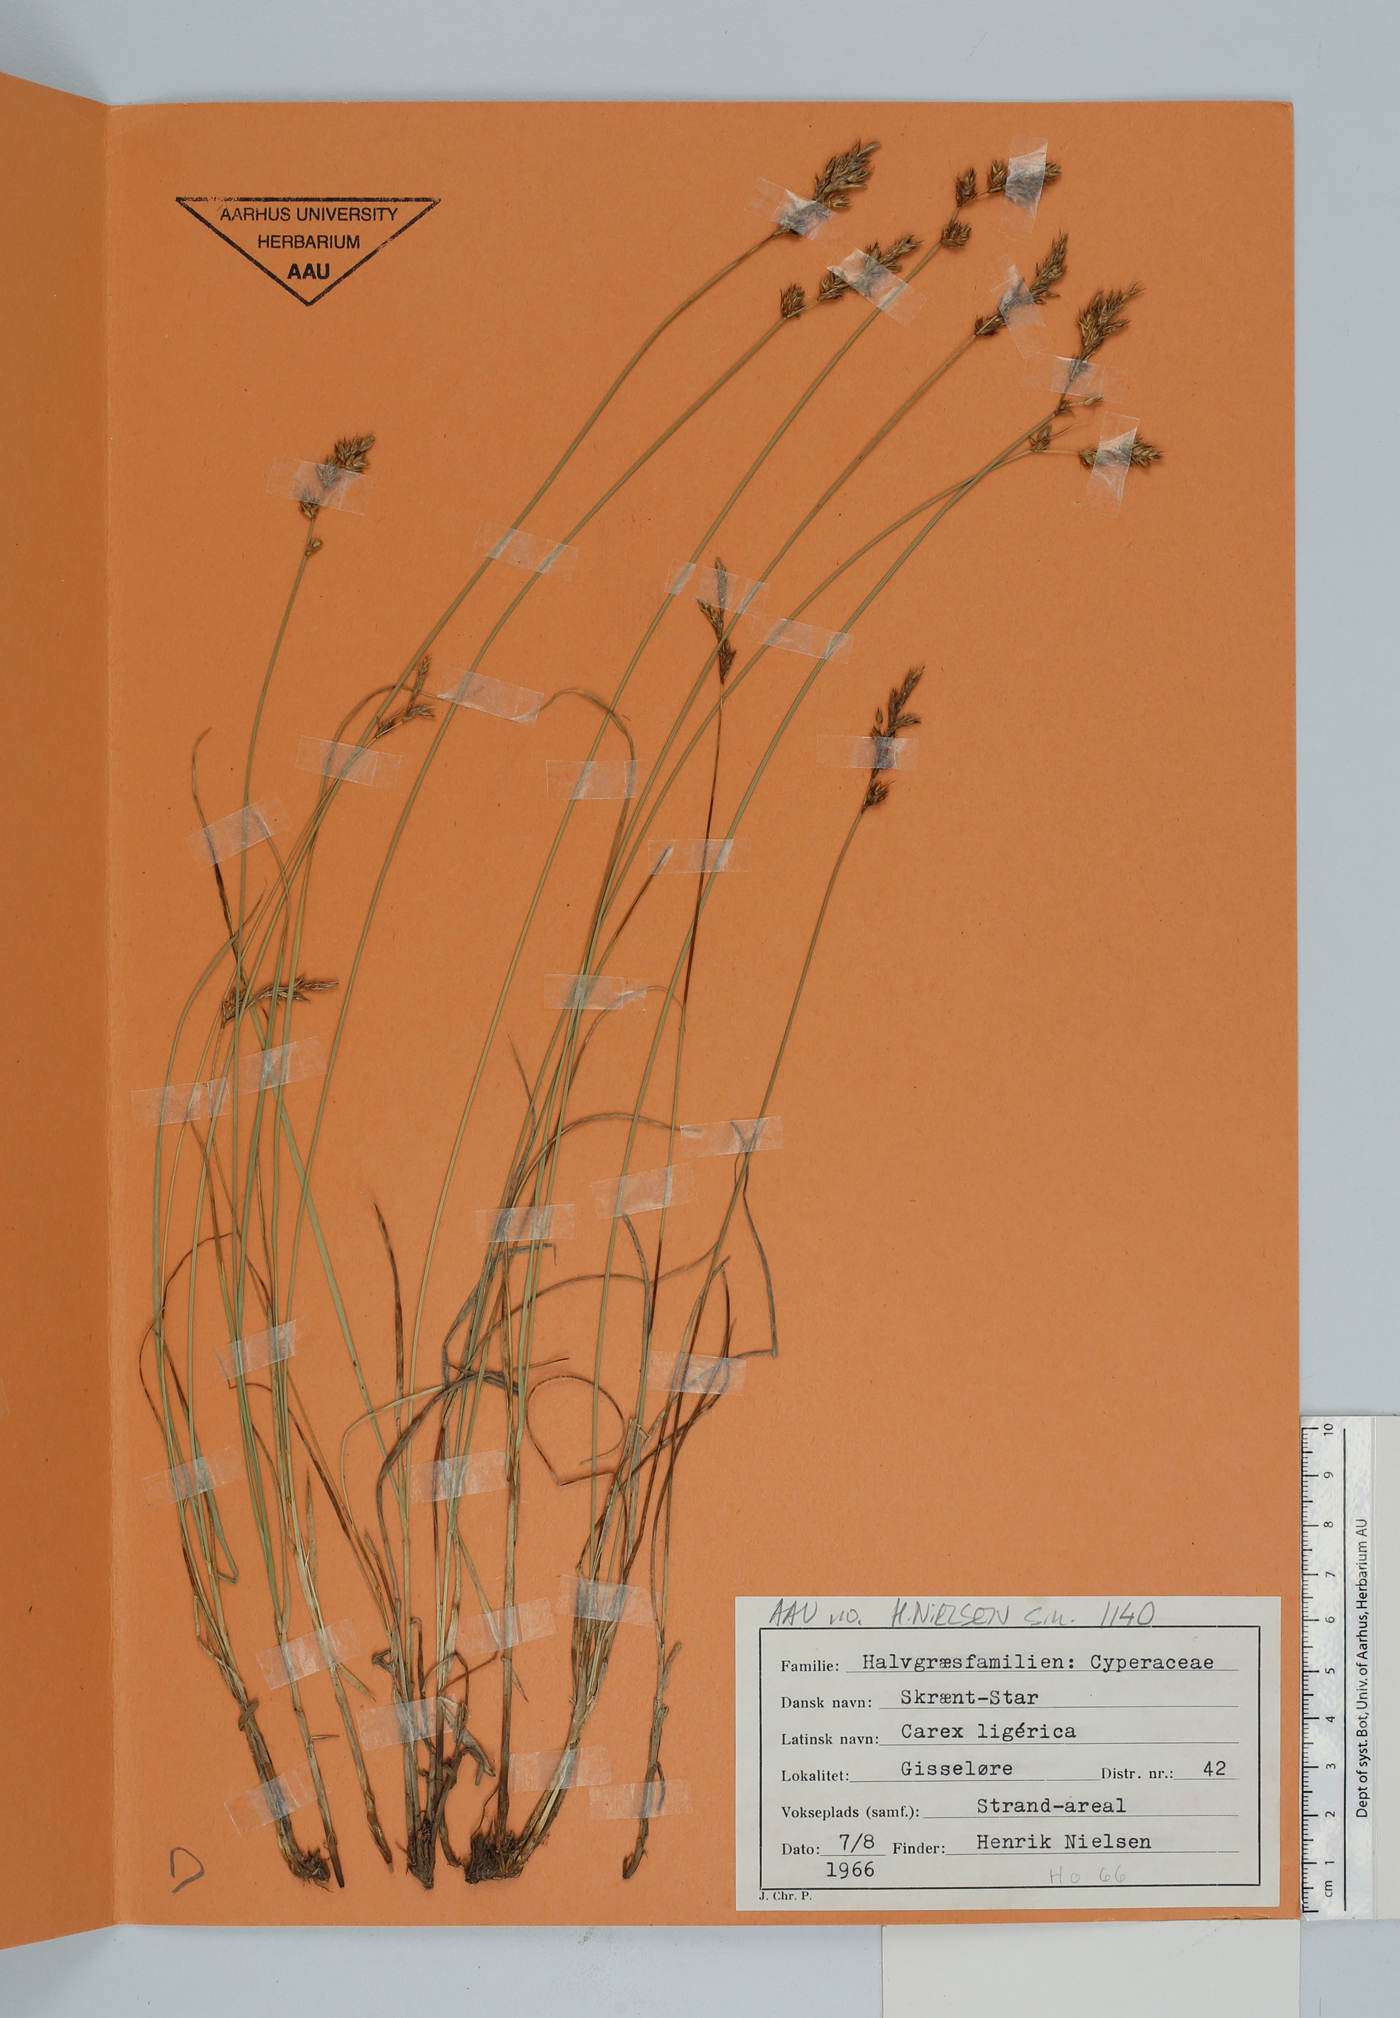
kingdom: Plantae
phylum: Tracheophyta
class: Liliopsida
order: Poales
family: Cyperaceae
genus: Carex
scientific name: Carex colchica
